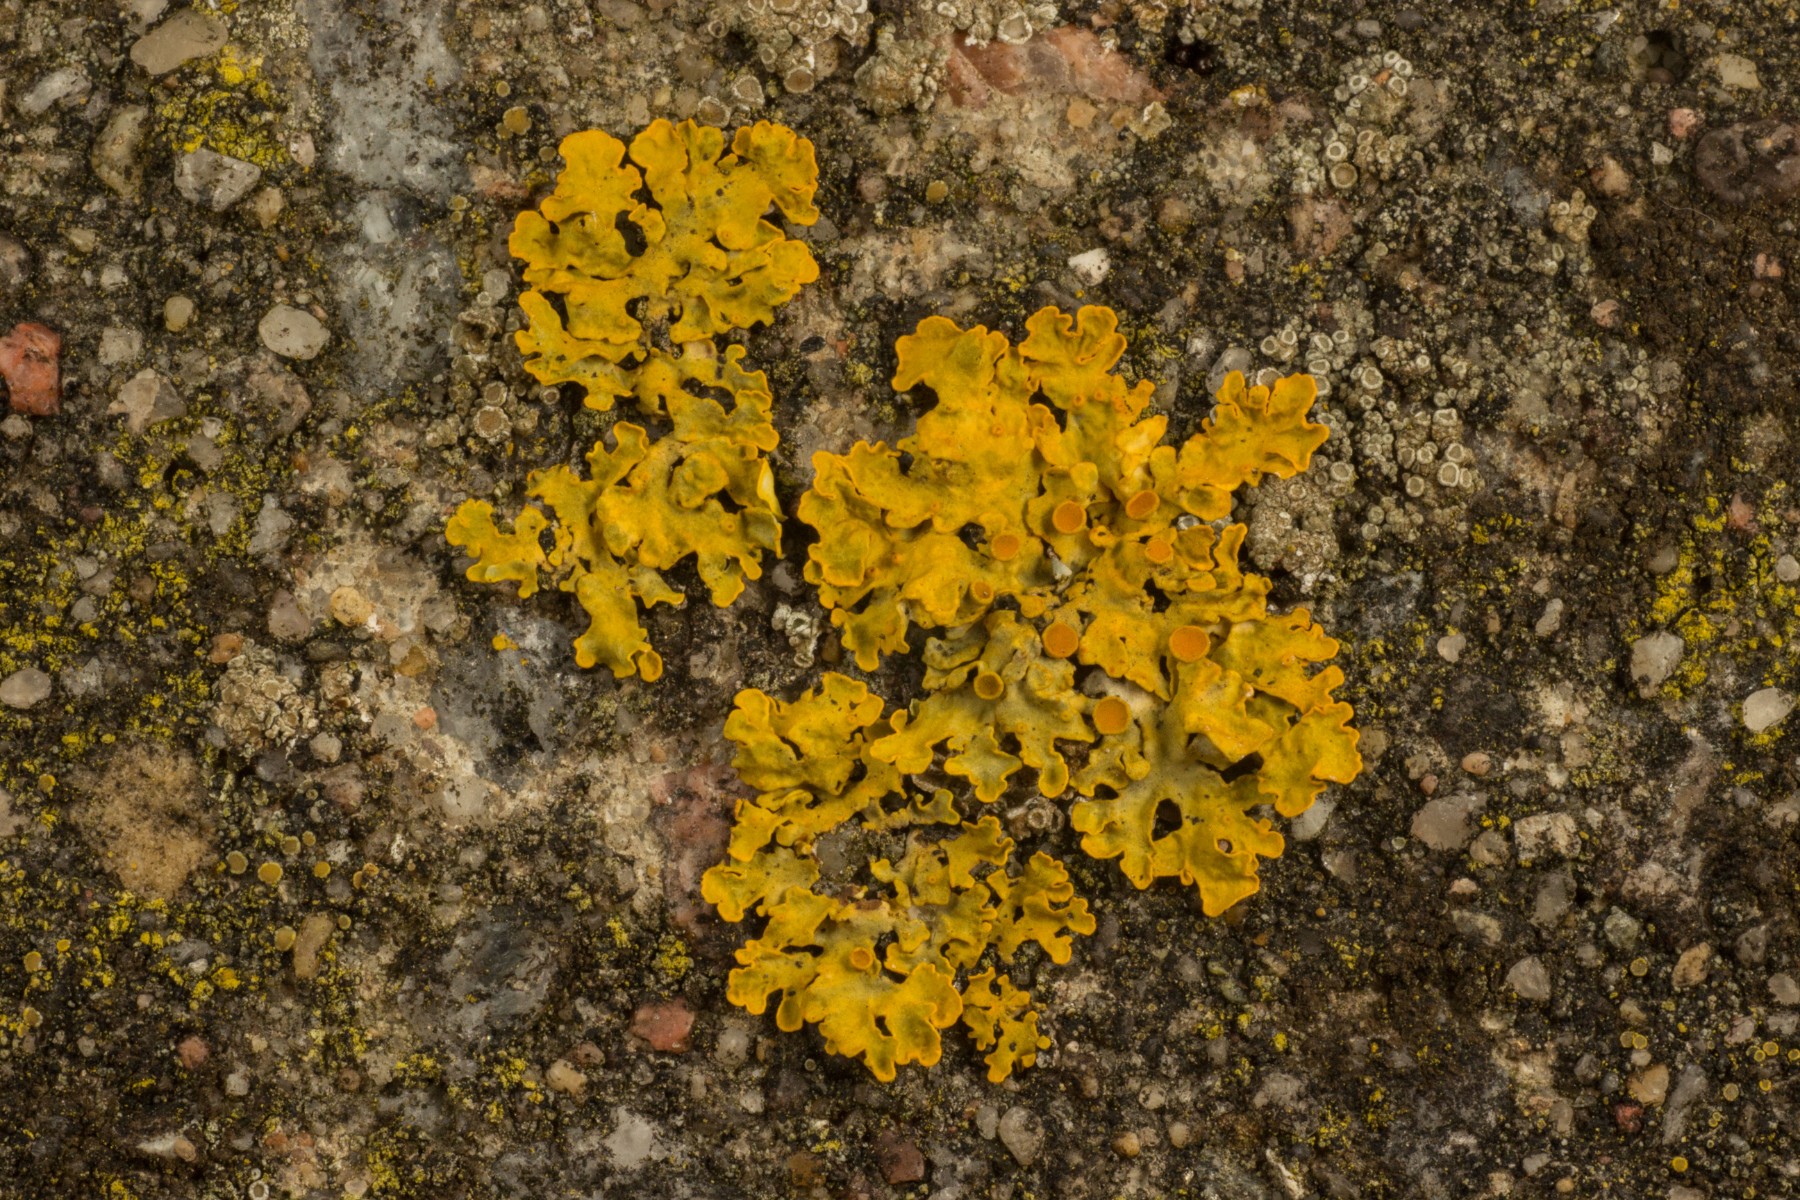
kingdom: Fungi
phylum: Ascomycota
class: Lecanoromycetes
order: Teloschistales
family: Teloschistaceae
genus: Xanthoria
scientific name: Xanthoria parietina
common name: almindelig væggelav
